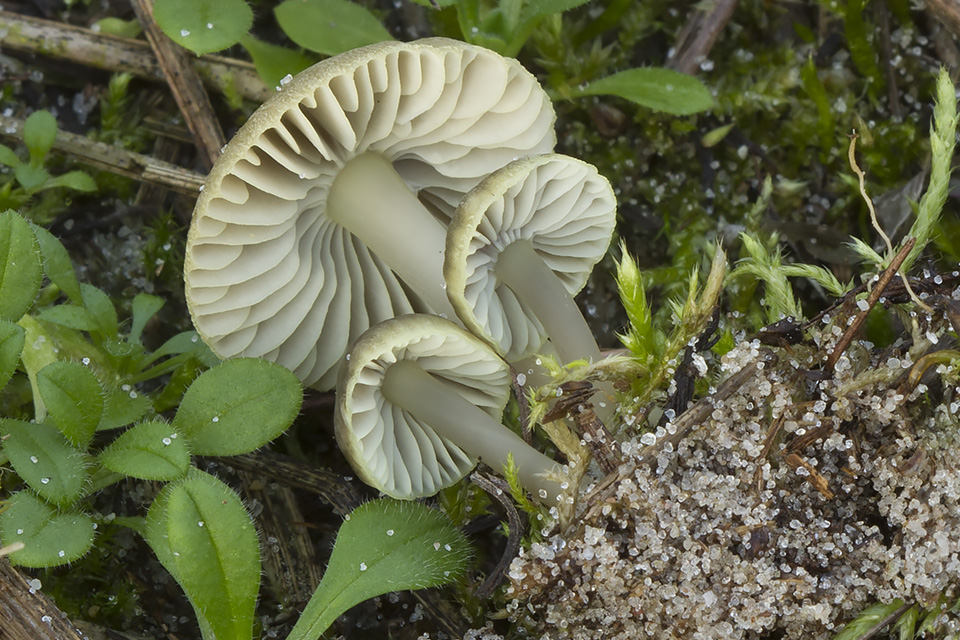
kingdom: Fungi
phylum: Basidiomycota
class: Agaricomycetes
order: Agaricales
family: Mycenaceae
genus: Mycena
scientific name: Mycena chlorantha
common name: klit-huesvamp
